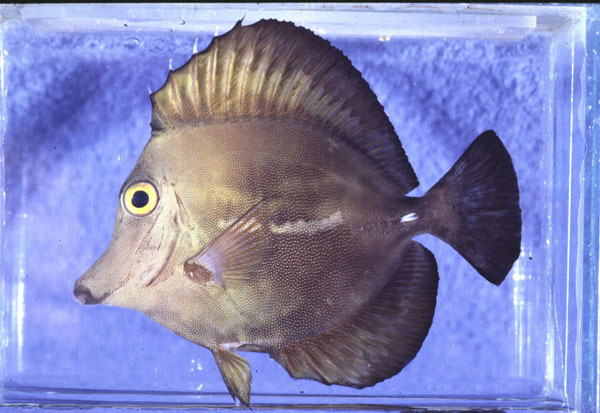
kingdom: Animalia
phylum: Chordata
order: Perciformes
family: Acanthuridae
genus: Zebrasoma
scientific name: Zebrasoma scopas
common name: Twotone tang
